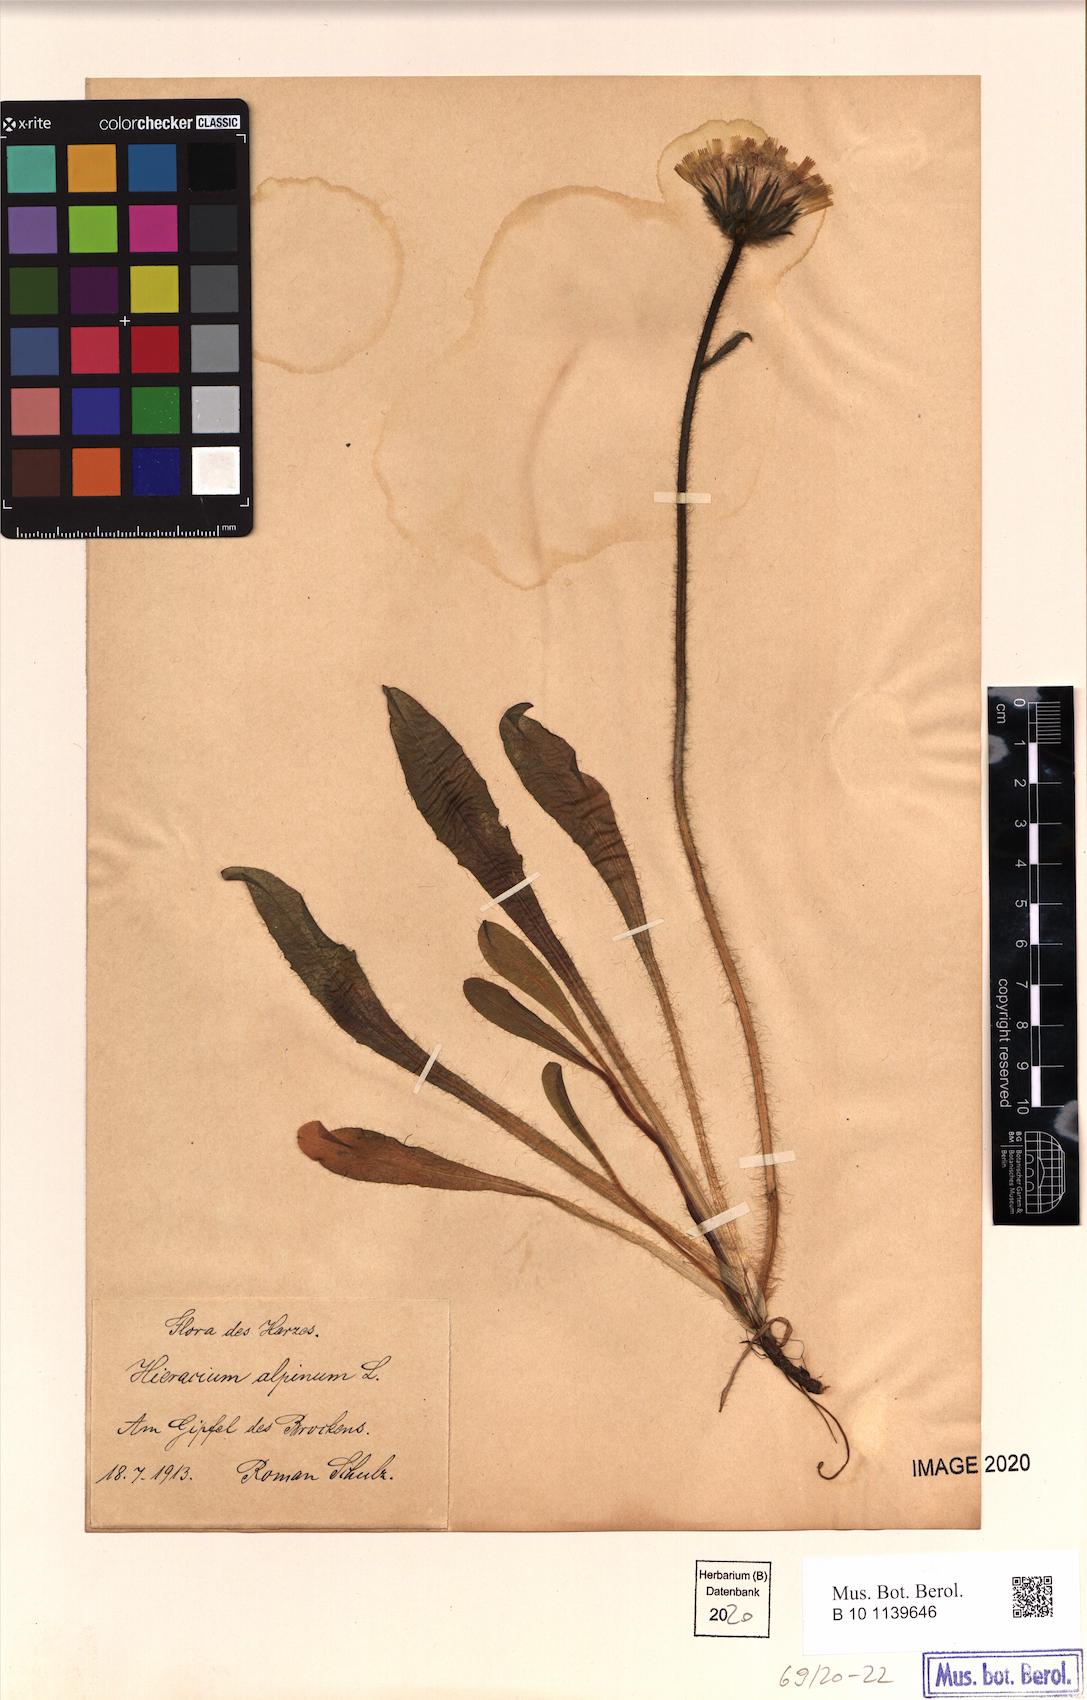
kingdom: Plantae
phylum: Tracheophyta
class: Magnoliopsida
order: Asterales
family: Asteraceae
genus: Hieracium
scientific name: Hieracium alpinum
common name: Alpine hawkweed
